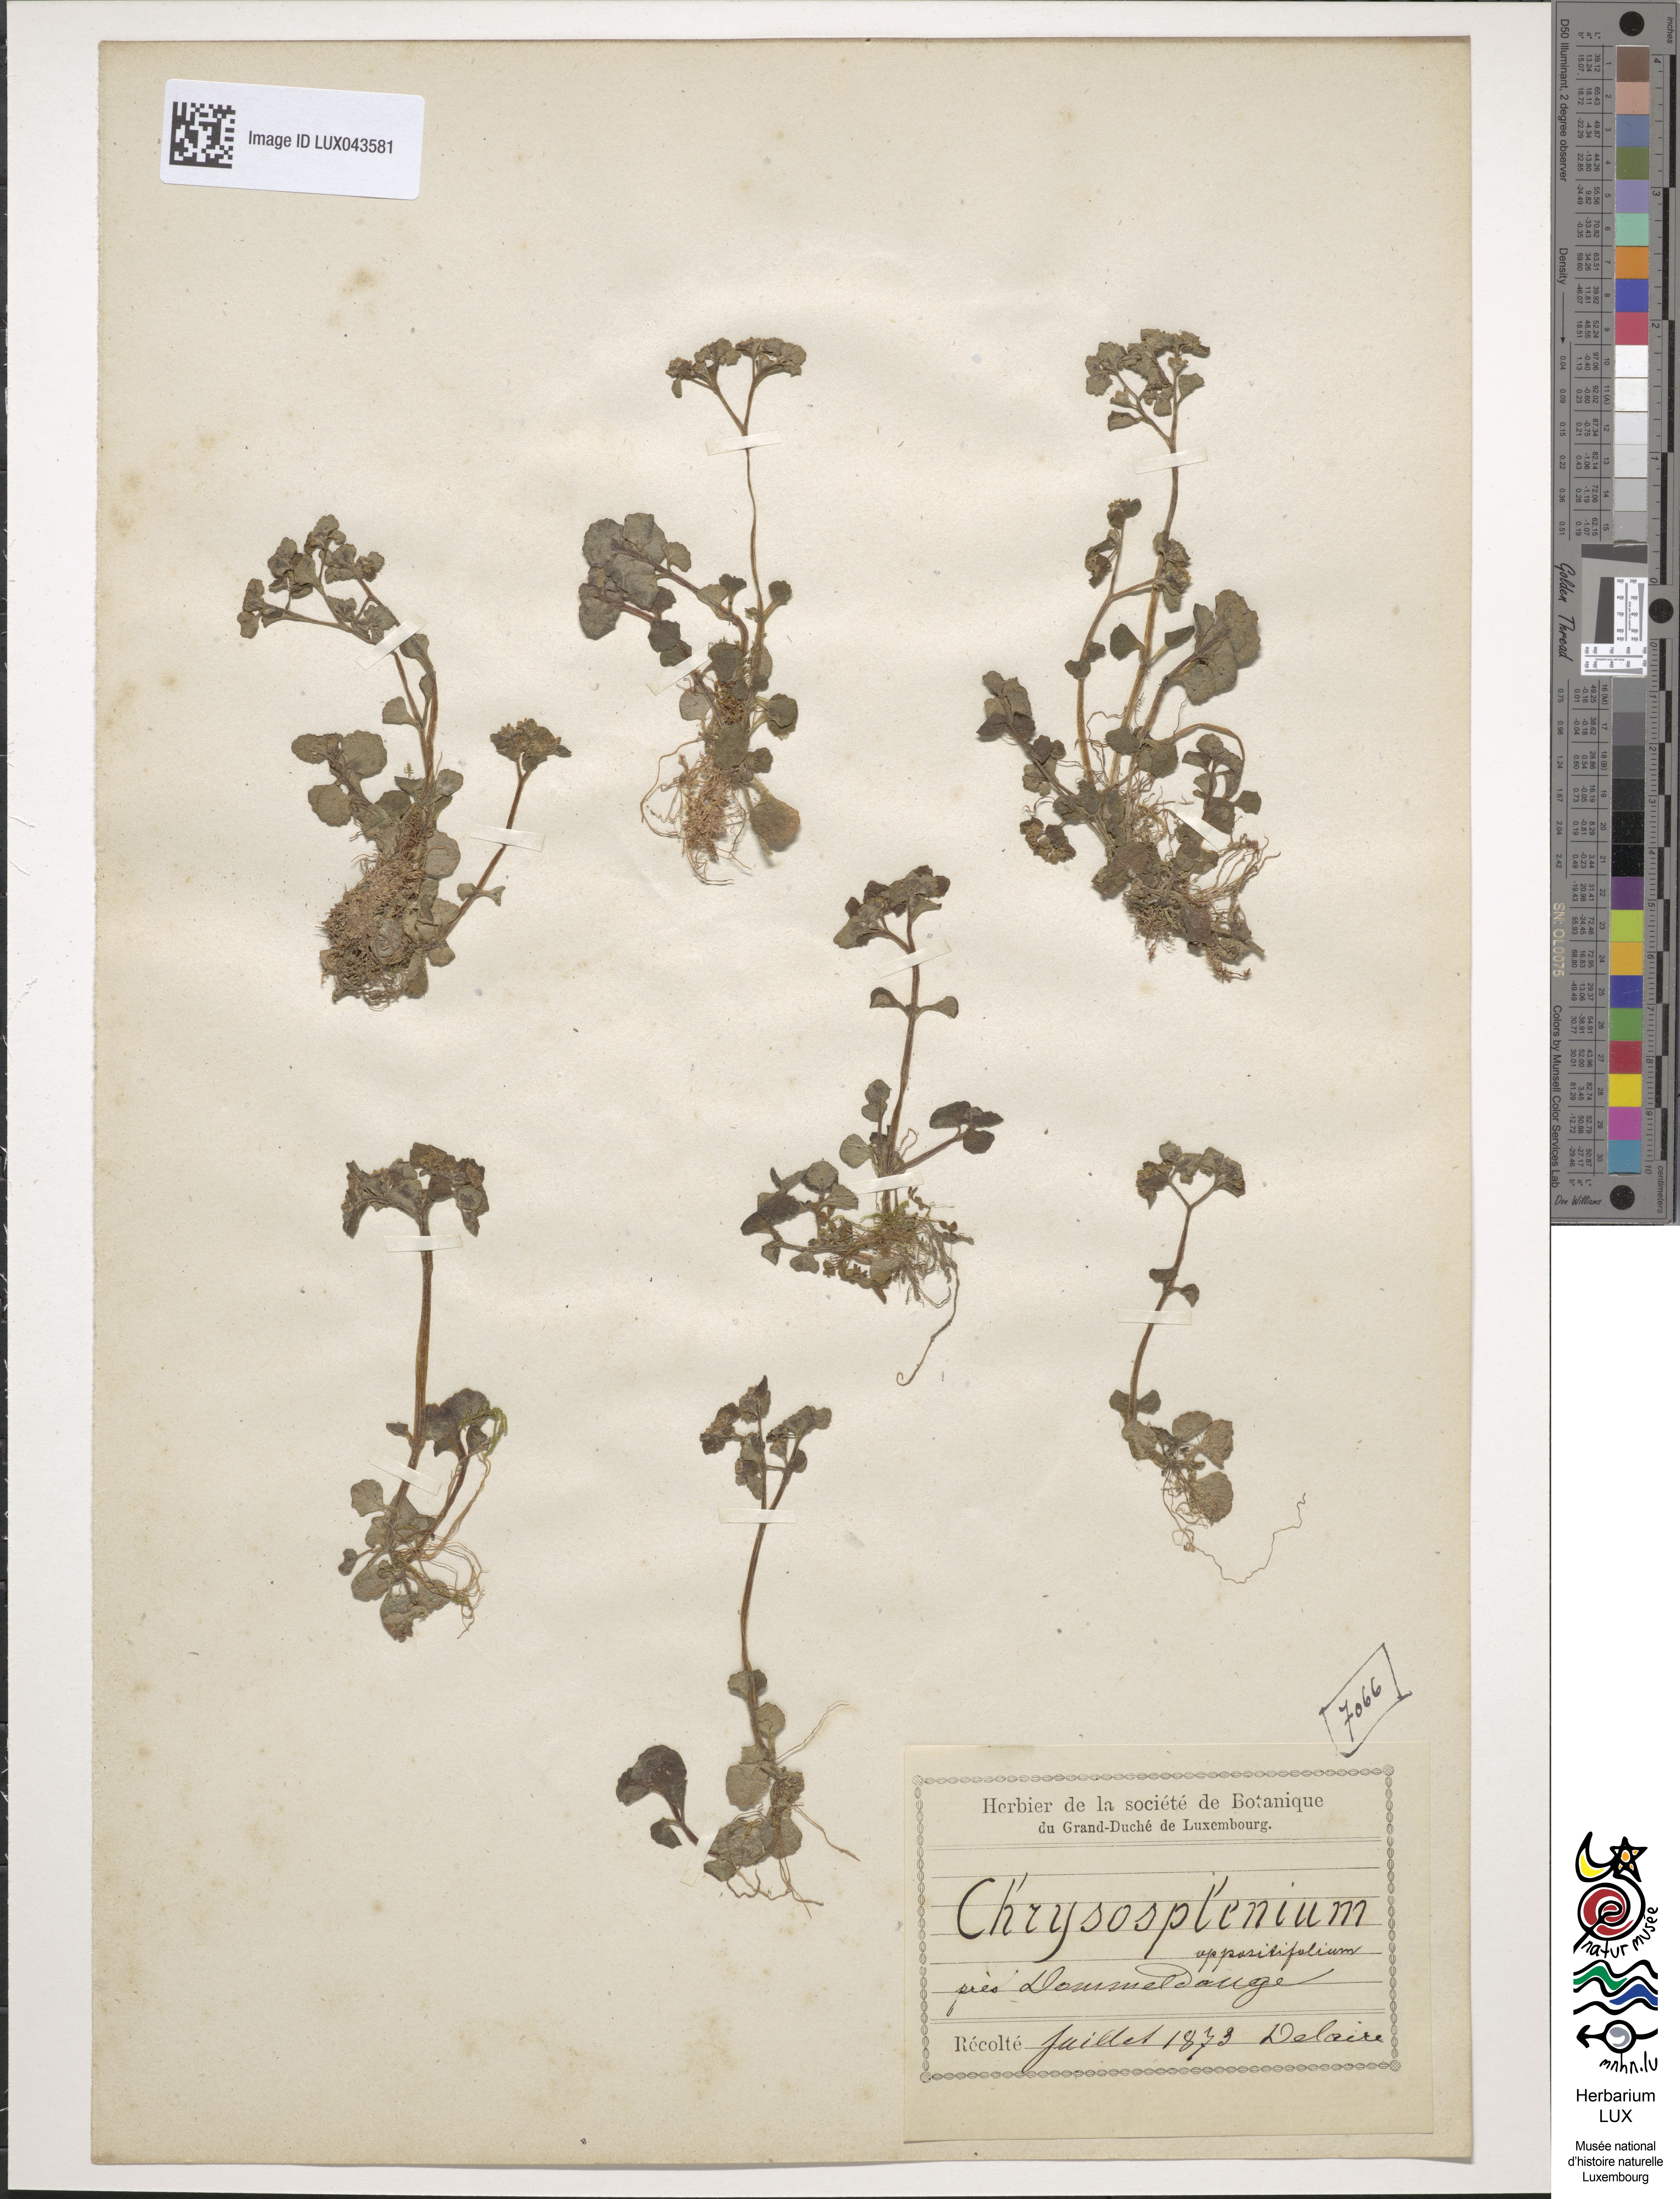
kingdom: Plantae
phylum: Tracheophyta
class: Magnoliopsida
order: Saxifragales
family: Saxifragaceae
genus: Chrysosplenium
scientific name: Chrysosplenium oppositifolium
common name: Opposite-leaved golden-saxifrage
